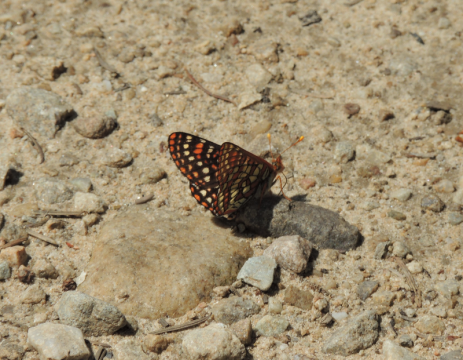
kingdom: Animalia
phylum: Arthropoda
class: Insecta
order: Lepidoptera
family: Nymphalidae
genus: Occidryas
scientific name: Occidryas anicia
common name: Anicia Checkerspot
